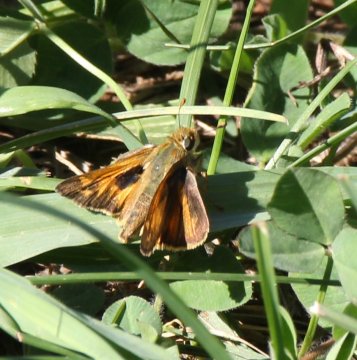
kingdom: Animalia
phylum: Arthropoda
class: Insecta
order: Lepidoptera
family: Hesperiidae
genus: Atalopedes
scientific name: Atalopedes campestris
